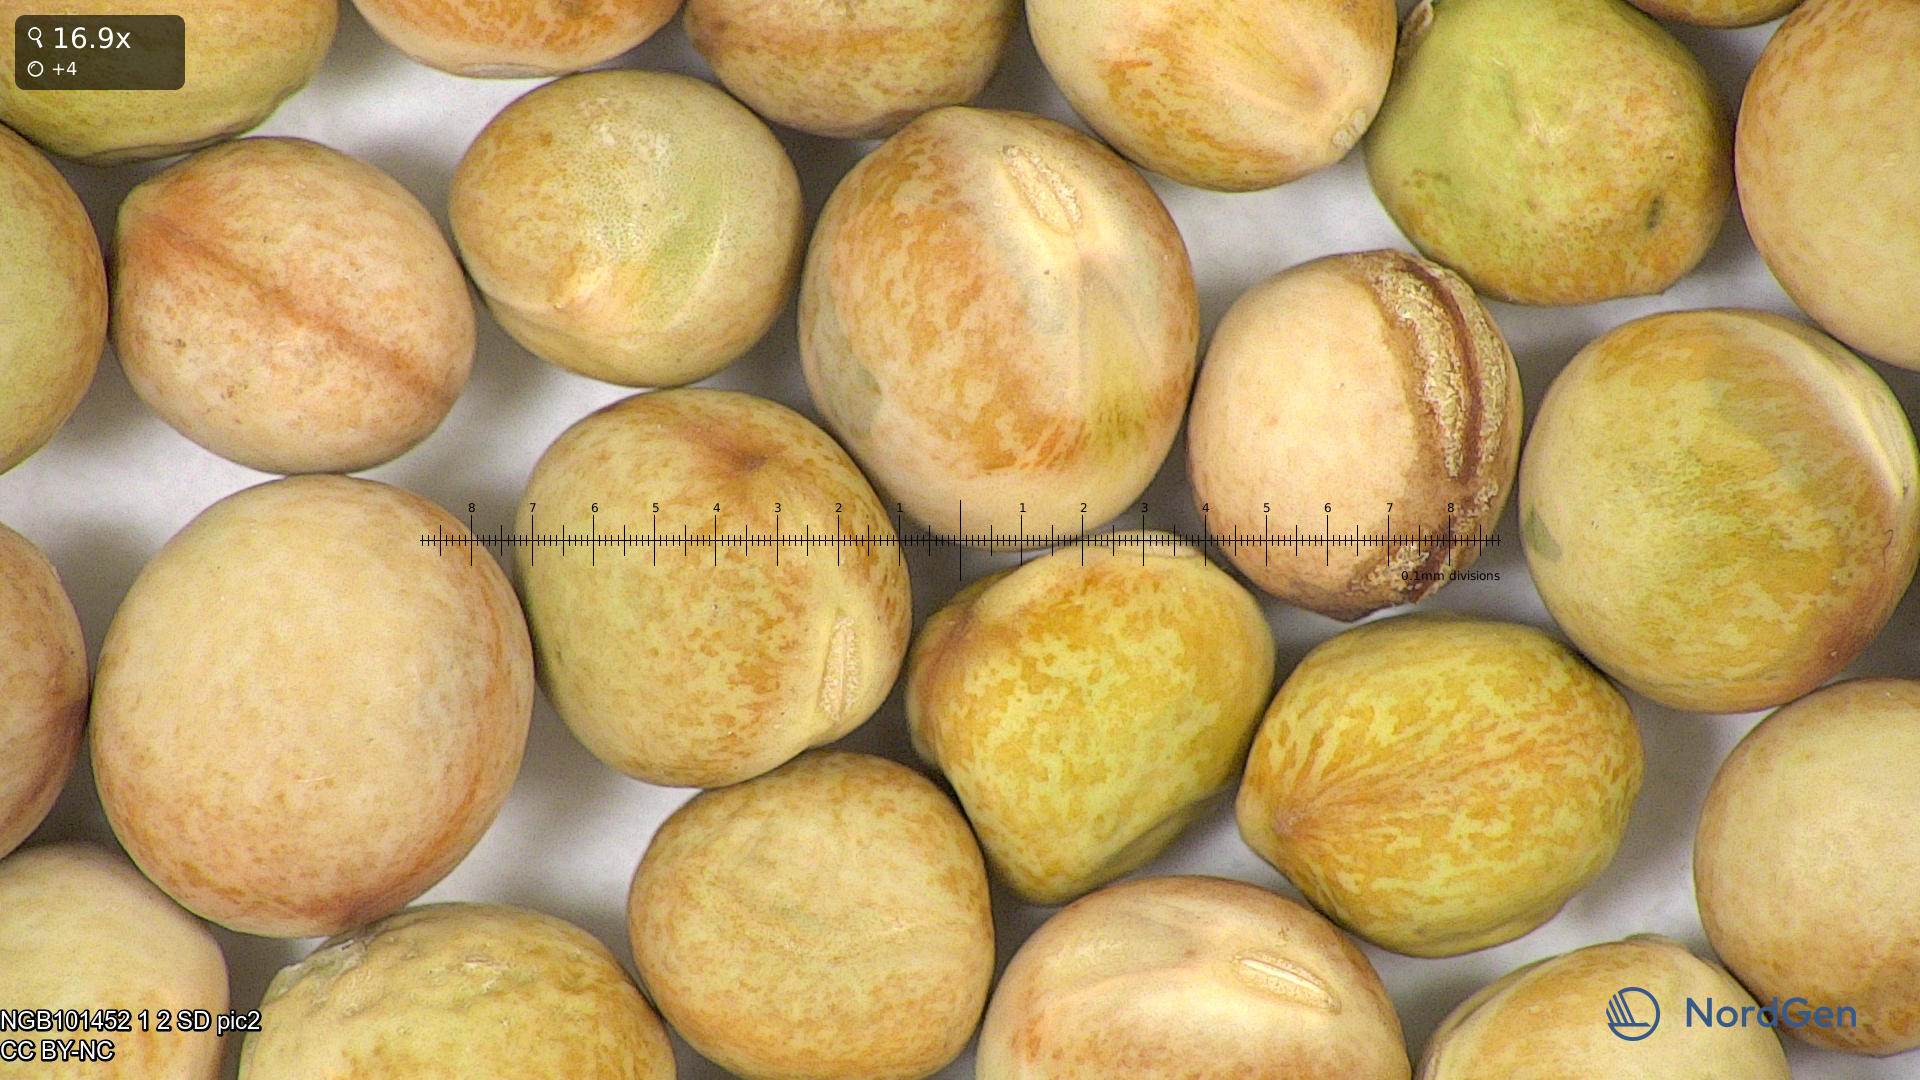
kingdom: Plantae
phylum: Tracheophyta
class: Magnoliopsida
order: Fabales
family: Fabaceae
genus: Lathyrus
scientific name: Lathyrus oleraceus
